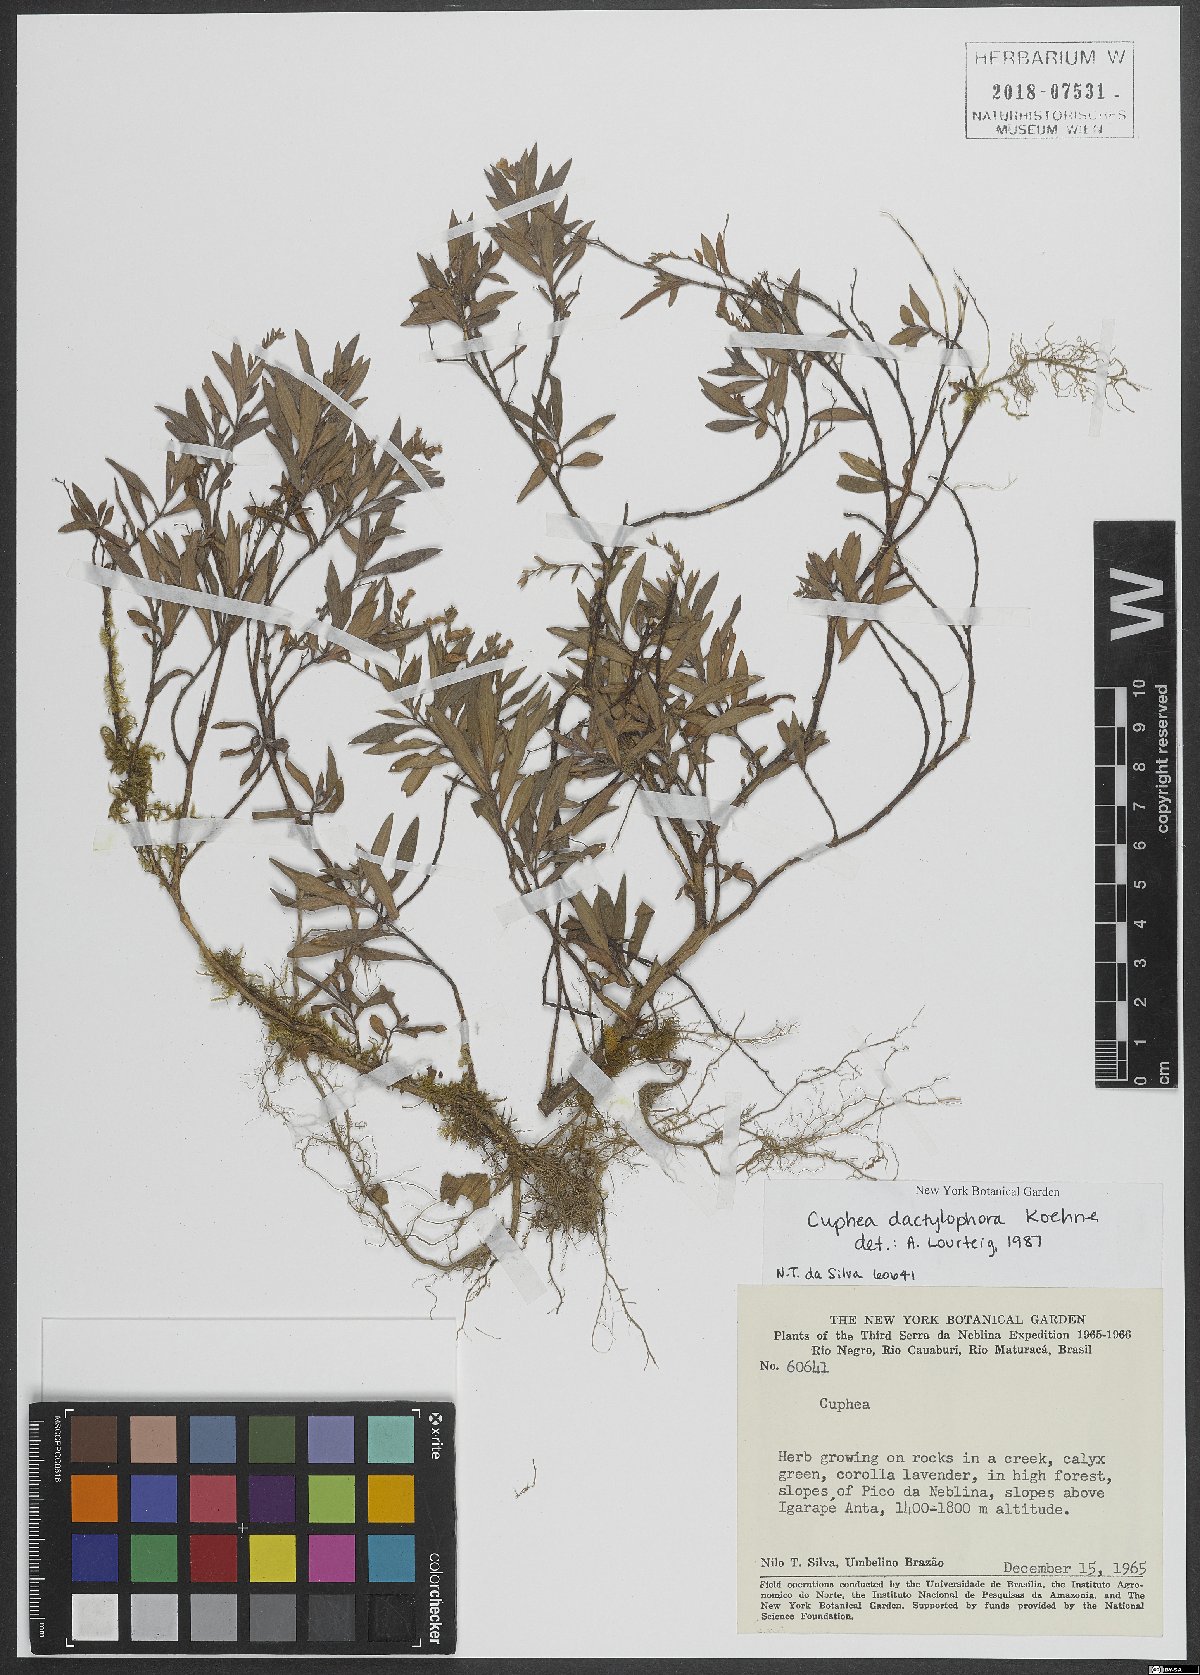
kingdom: Plantae
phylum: Tracheophyta
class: Magnoliopsida
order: Myrtales
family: Lythraceae
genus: Cuphea
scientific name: Cuphea dactylophora
